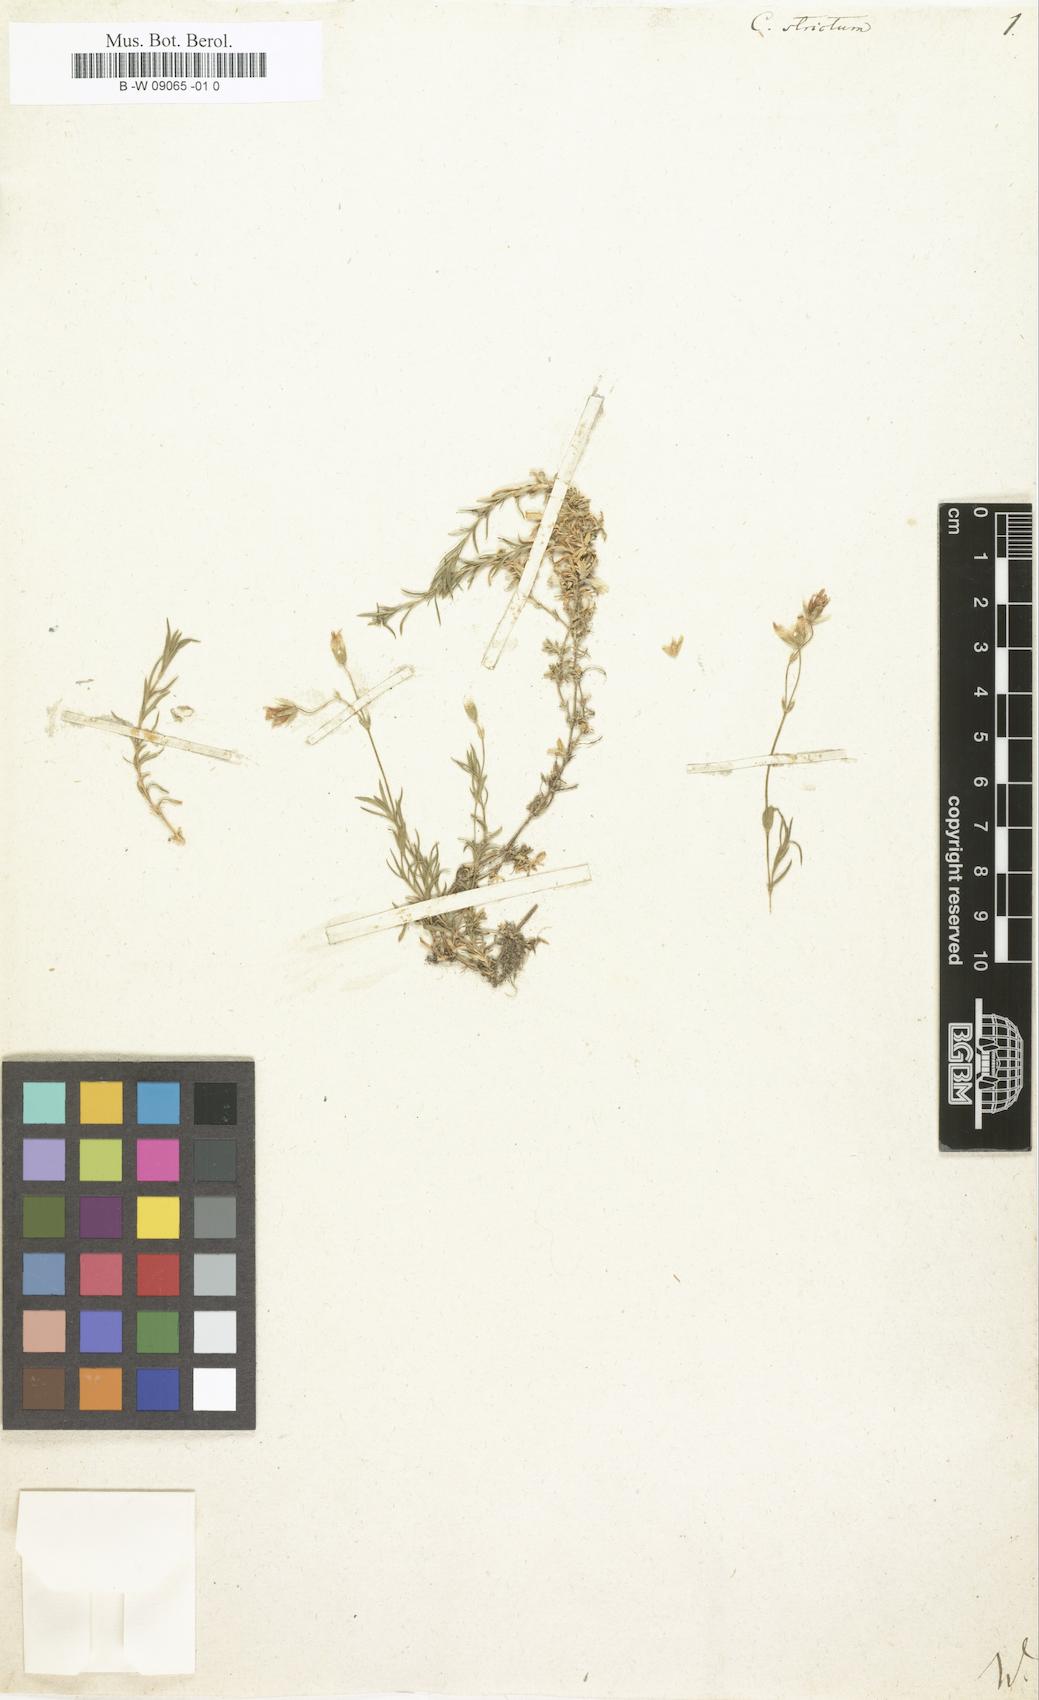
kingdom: Plantae
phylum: Tracheophyta
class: Magnoliopsida
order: Caryophyllales
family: Caryophyllaceae
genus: Cerastium
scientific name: Cerastium elongatum
